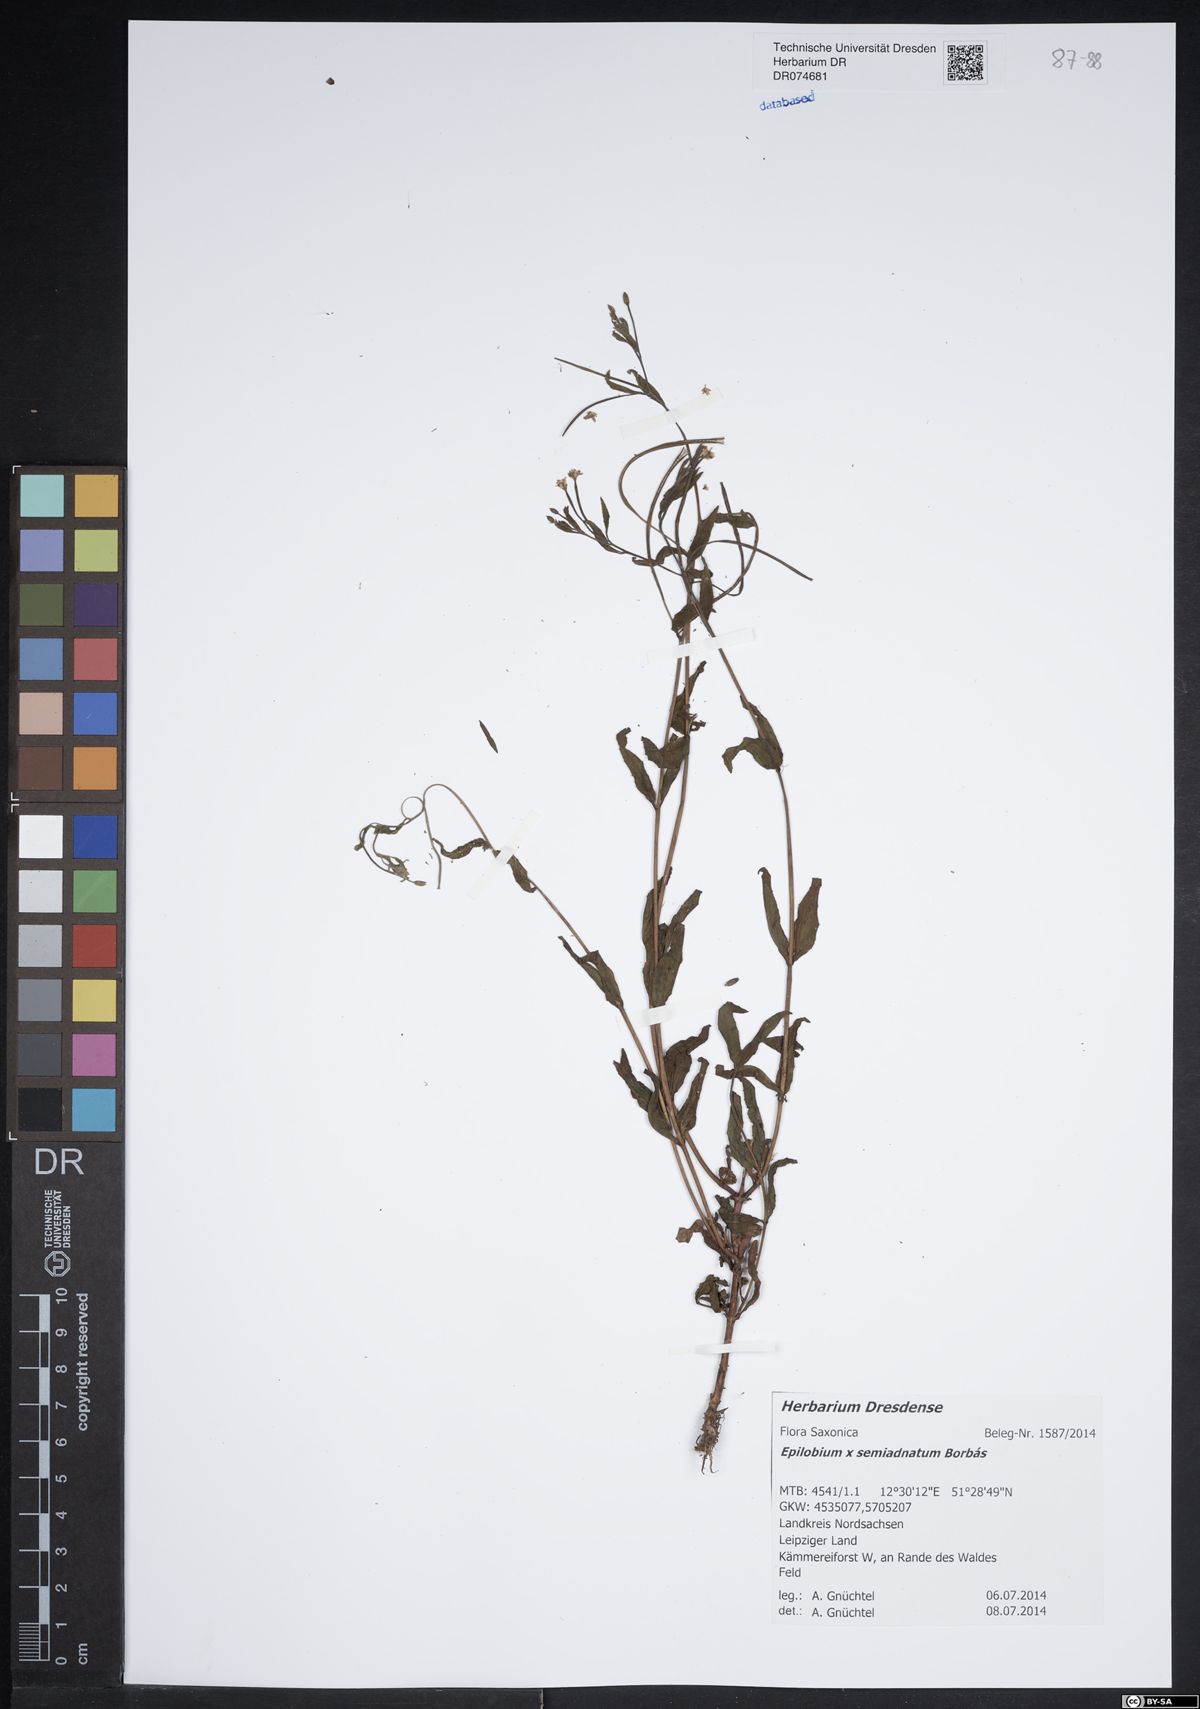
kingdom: Plantae
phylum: Tracheophyta
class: Magnoliopsida
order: Myrtales
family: Onagraceae
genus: Epilobium
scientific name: Epilobium semiadnatum
